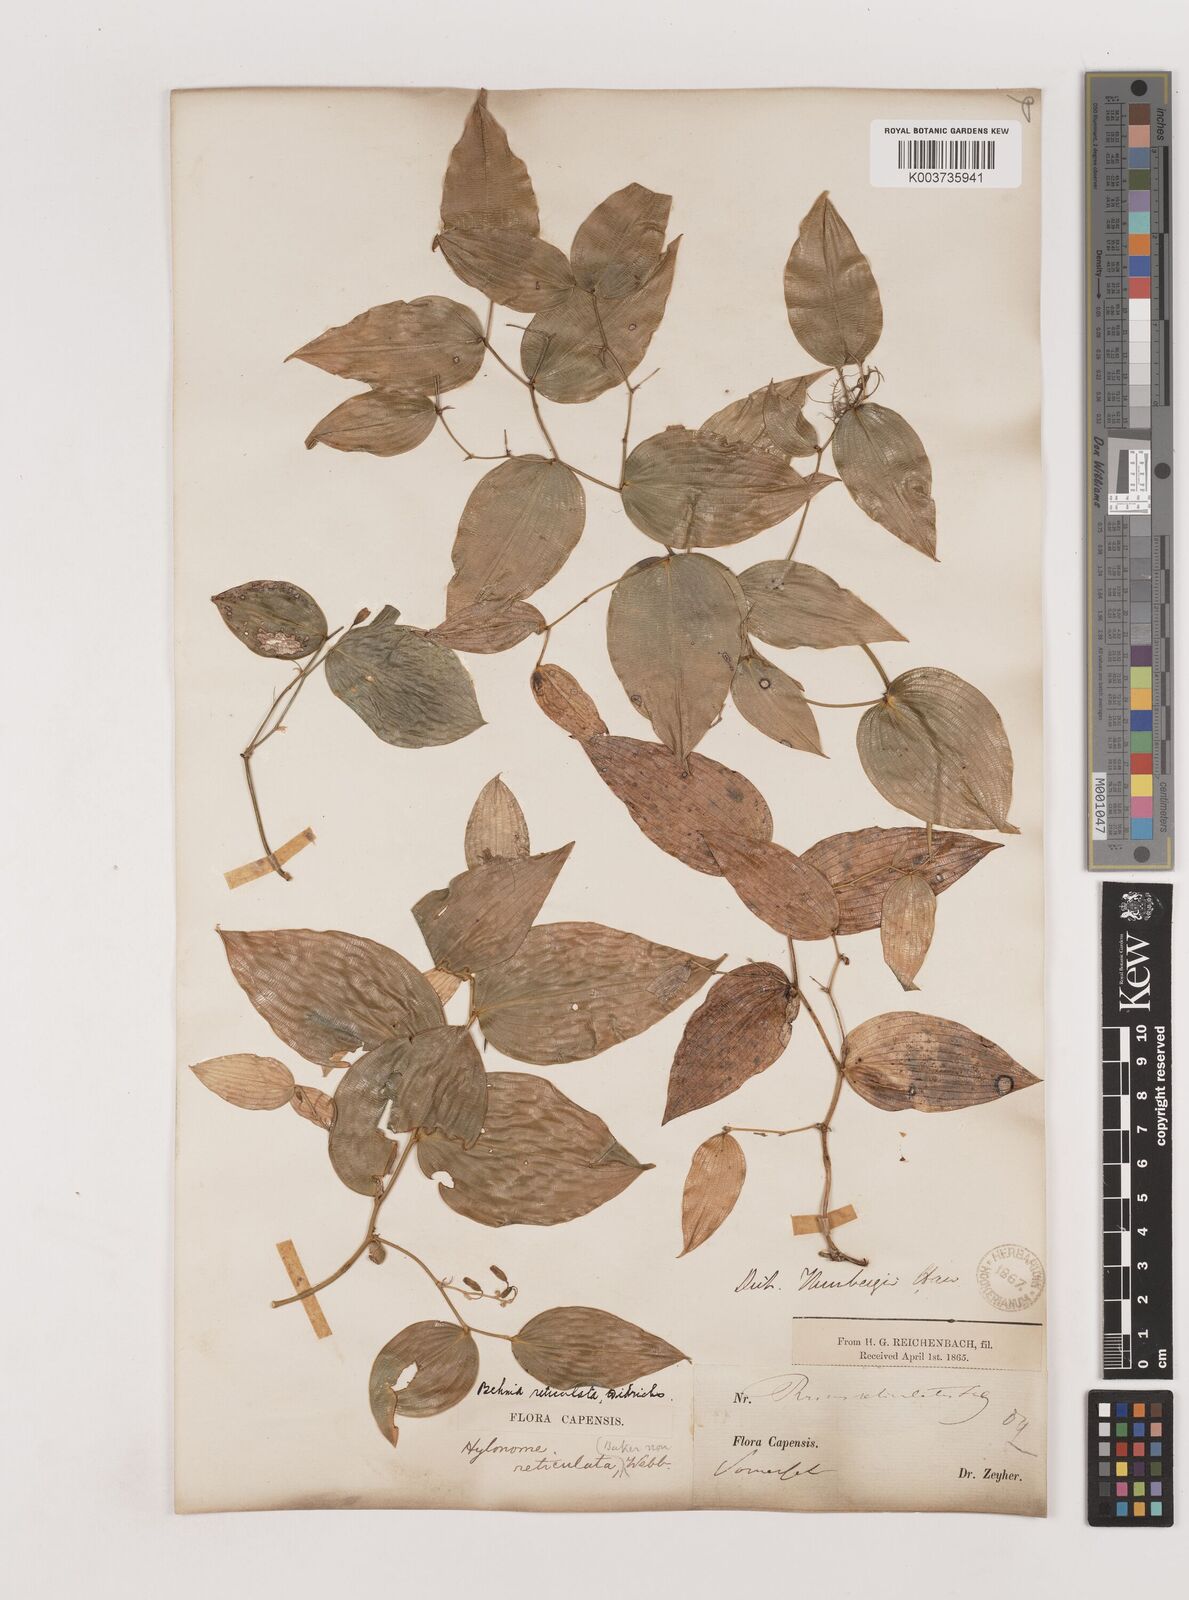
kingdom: Plantae
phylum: Tracheophyta
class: Liliopsida
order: Asparagales
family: Asparagaceae
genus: Behnia
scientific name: Behnia reticulata
